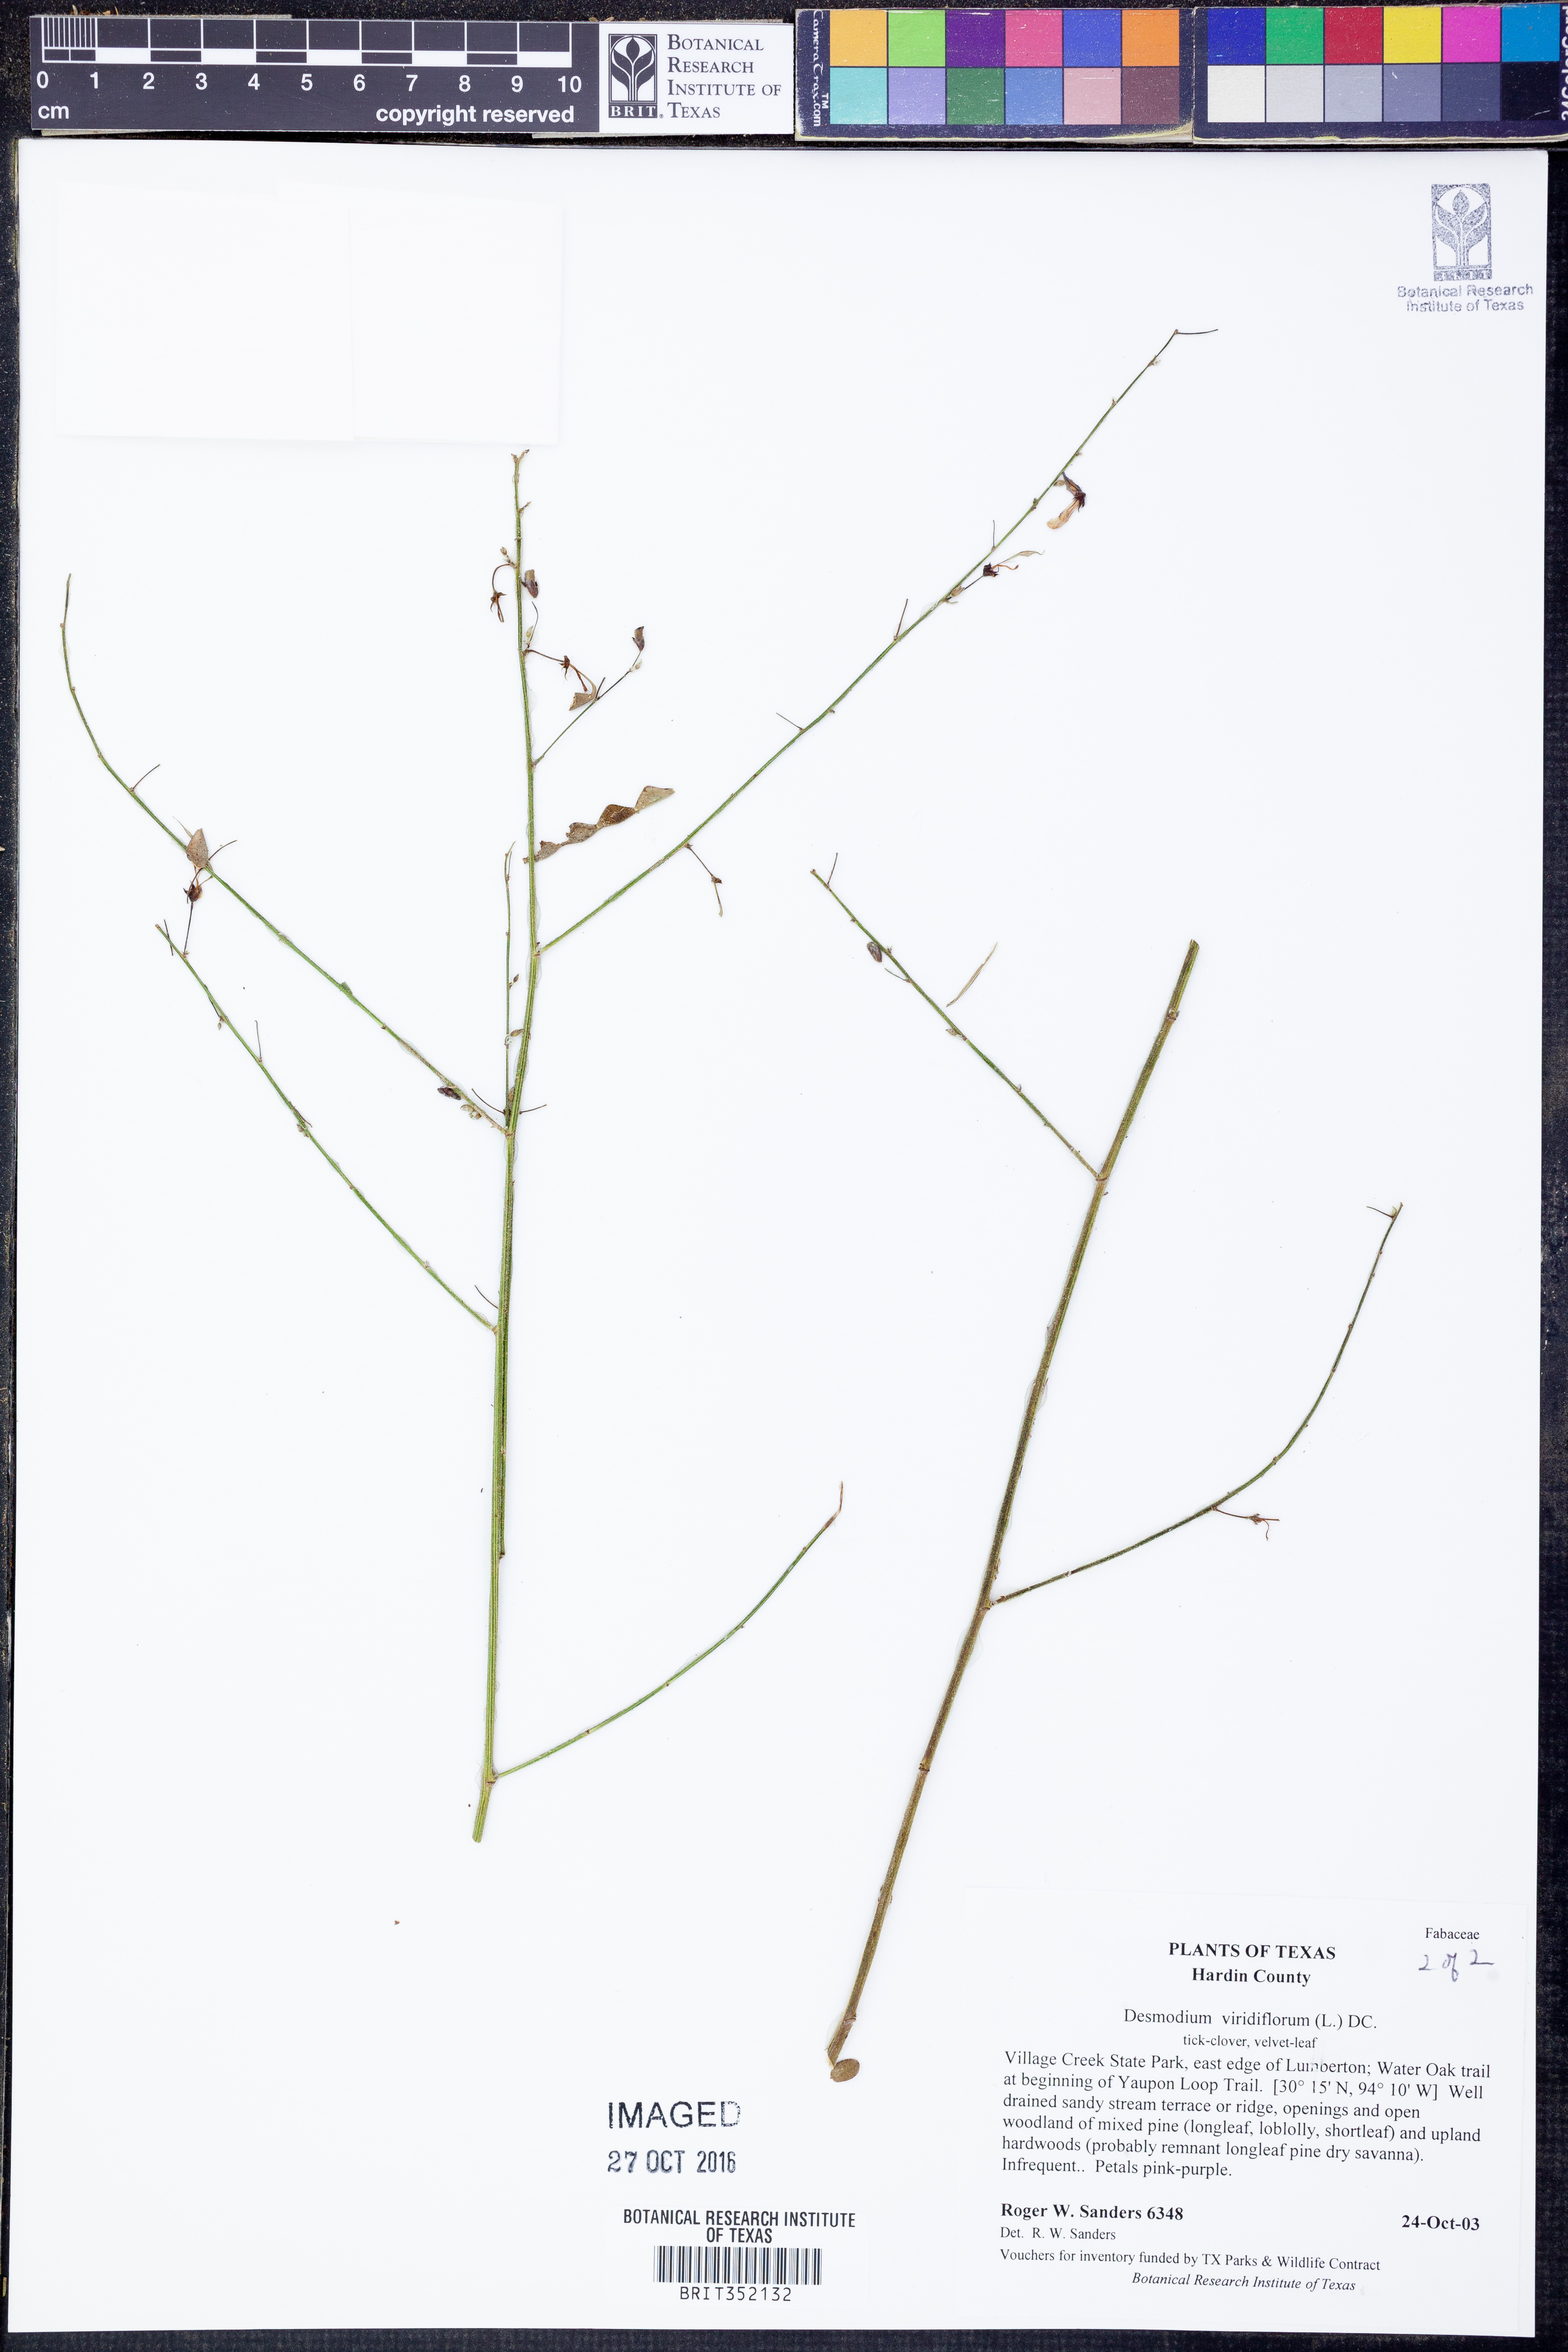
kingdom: Plantae
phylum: Tracheophyta
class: Magnoliopsida
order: Fabales
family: Fabaceae
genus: Desmodium
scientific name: Desmodium viridiflorum
